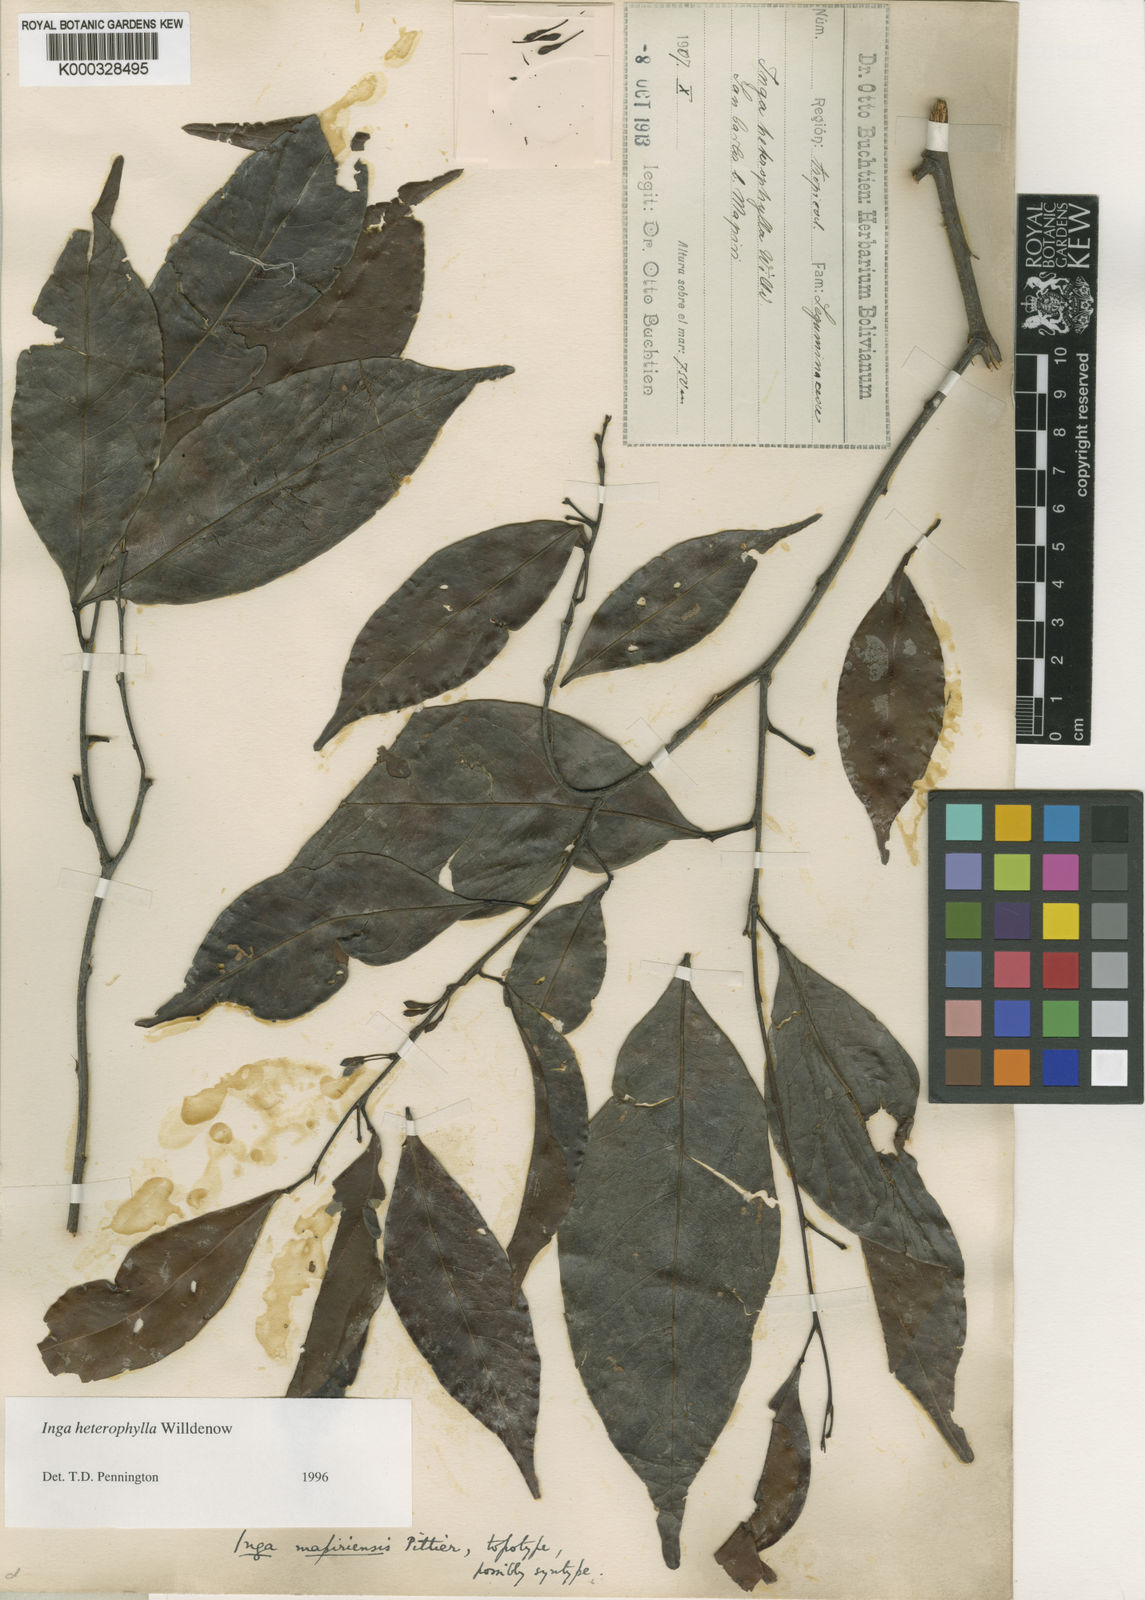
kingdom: Plantae
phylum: Tracheophyta
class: Magnoliopsida
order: Fabales
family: Fabaceae
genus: Inga
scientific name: Inga heterophylla
